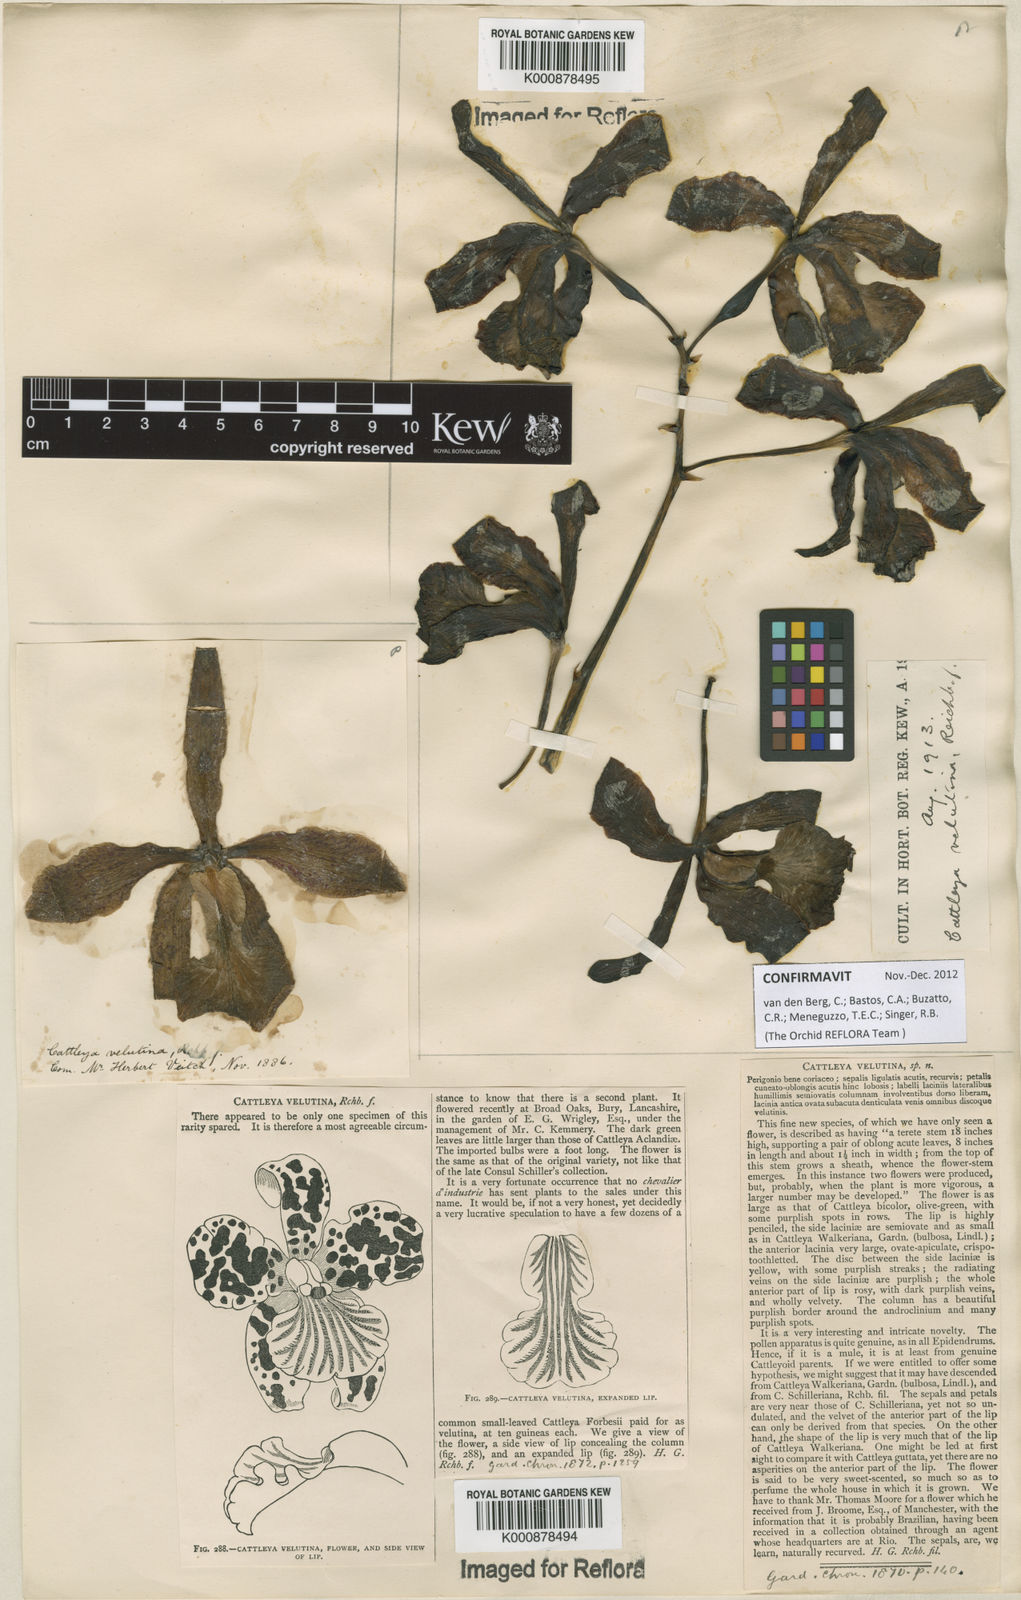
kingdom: Plantae
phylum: Tracheophyta
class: Liliopsida
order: Asparagales
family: Orchidaceae
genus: Cattleya
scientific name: Cattleya velutina
